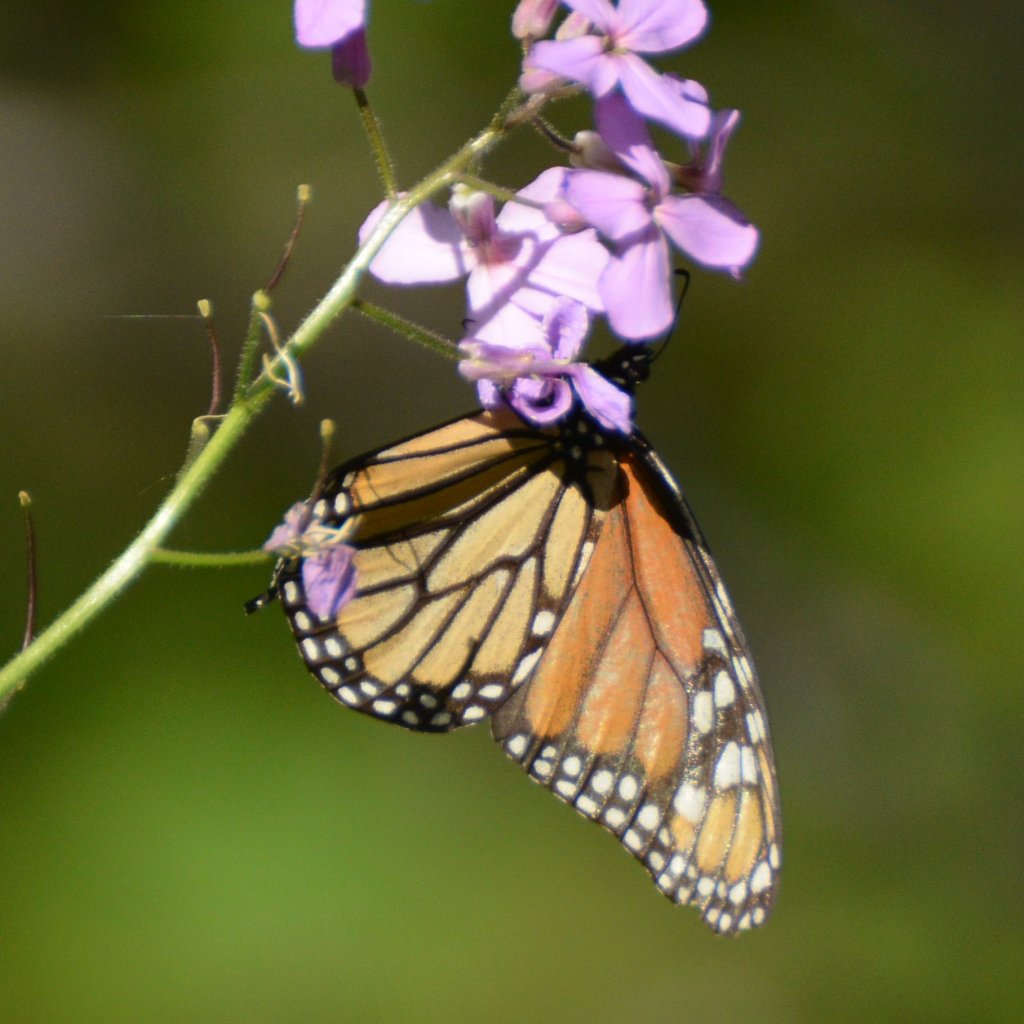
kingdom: Animalia
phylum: Arthropoda
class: Insecta
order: Lepidoptera
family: Nymphalidae
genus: Danaus
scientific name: Danaus plexippus
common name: Monarch
